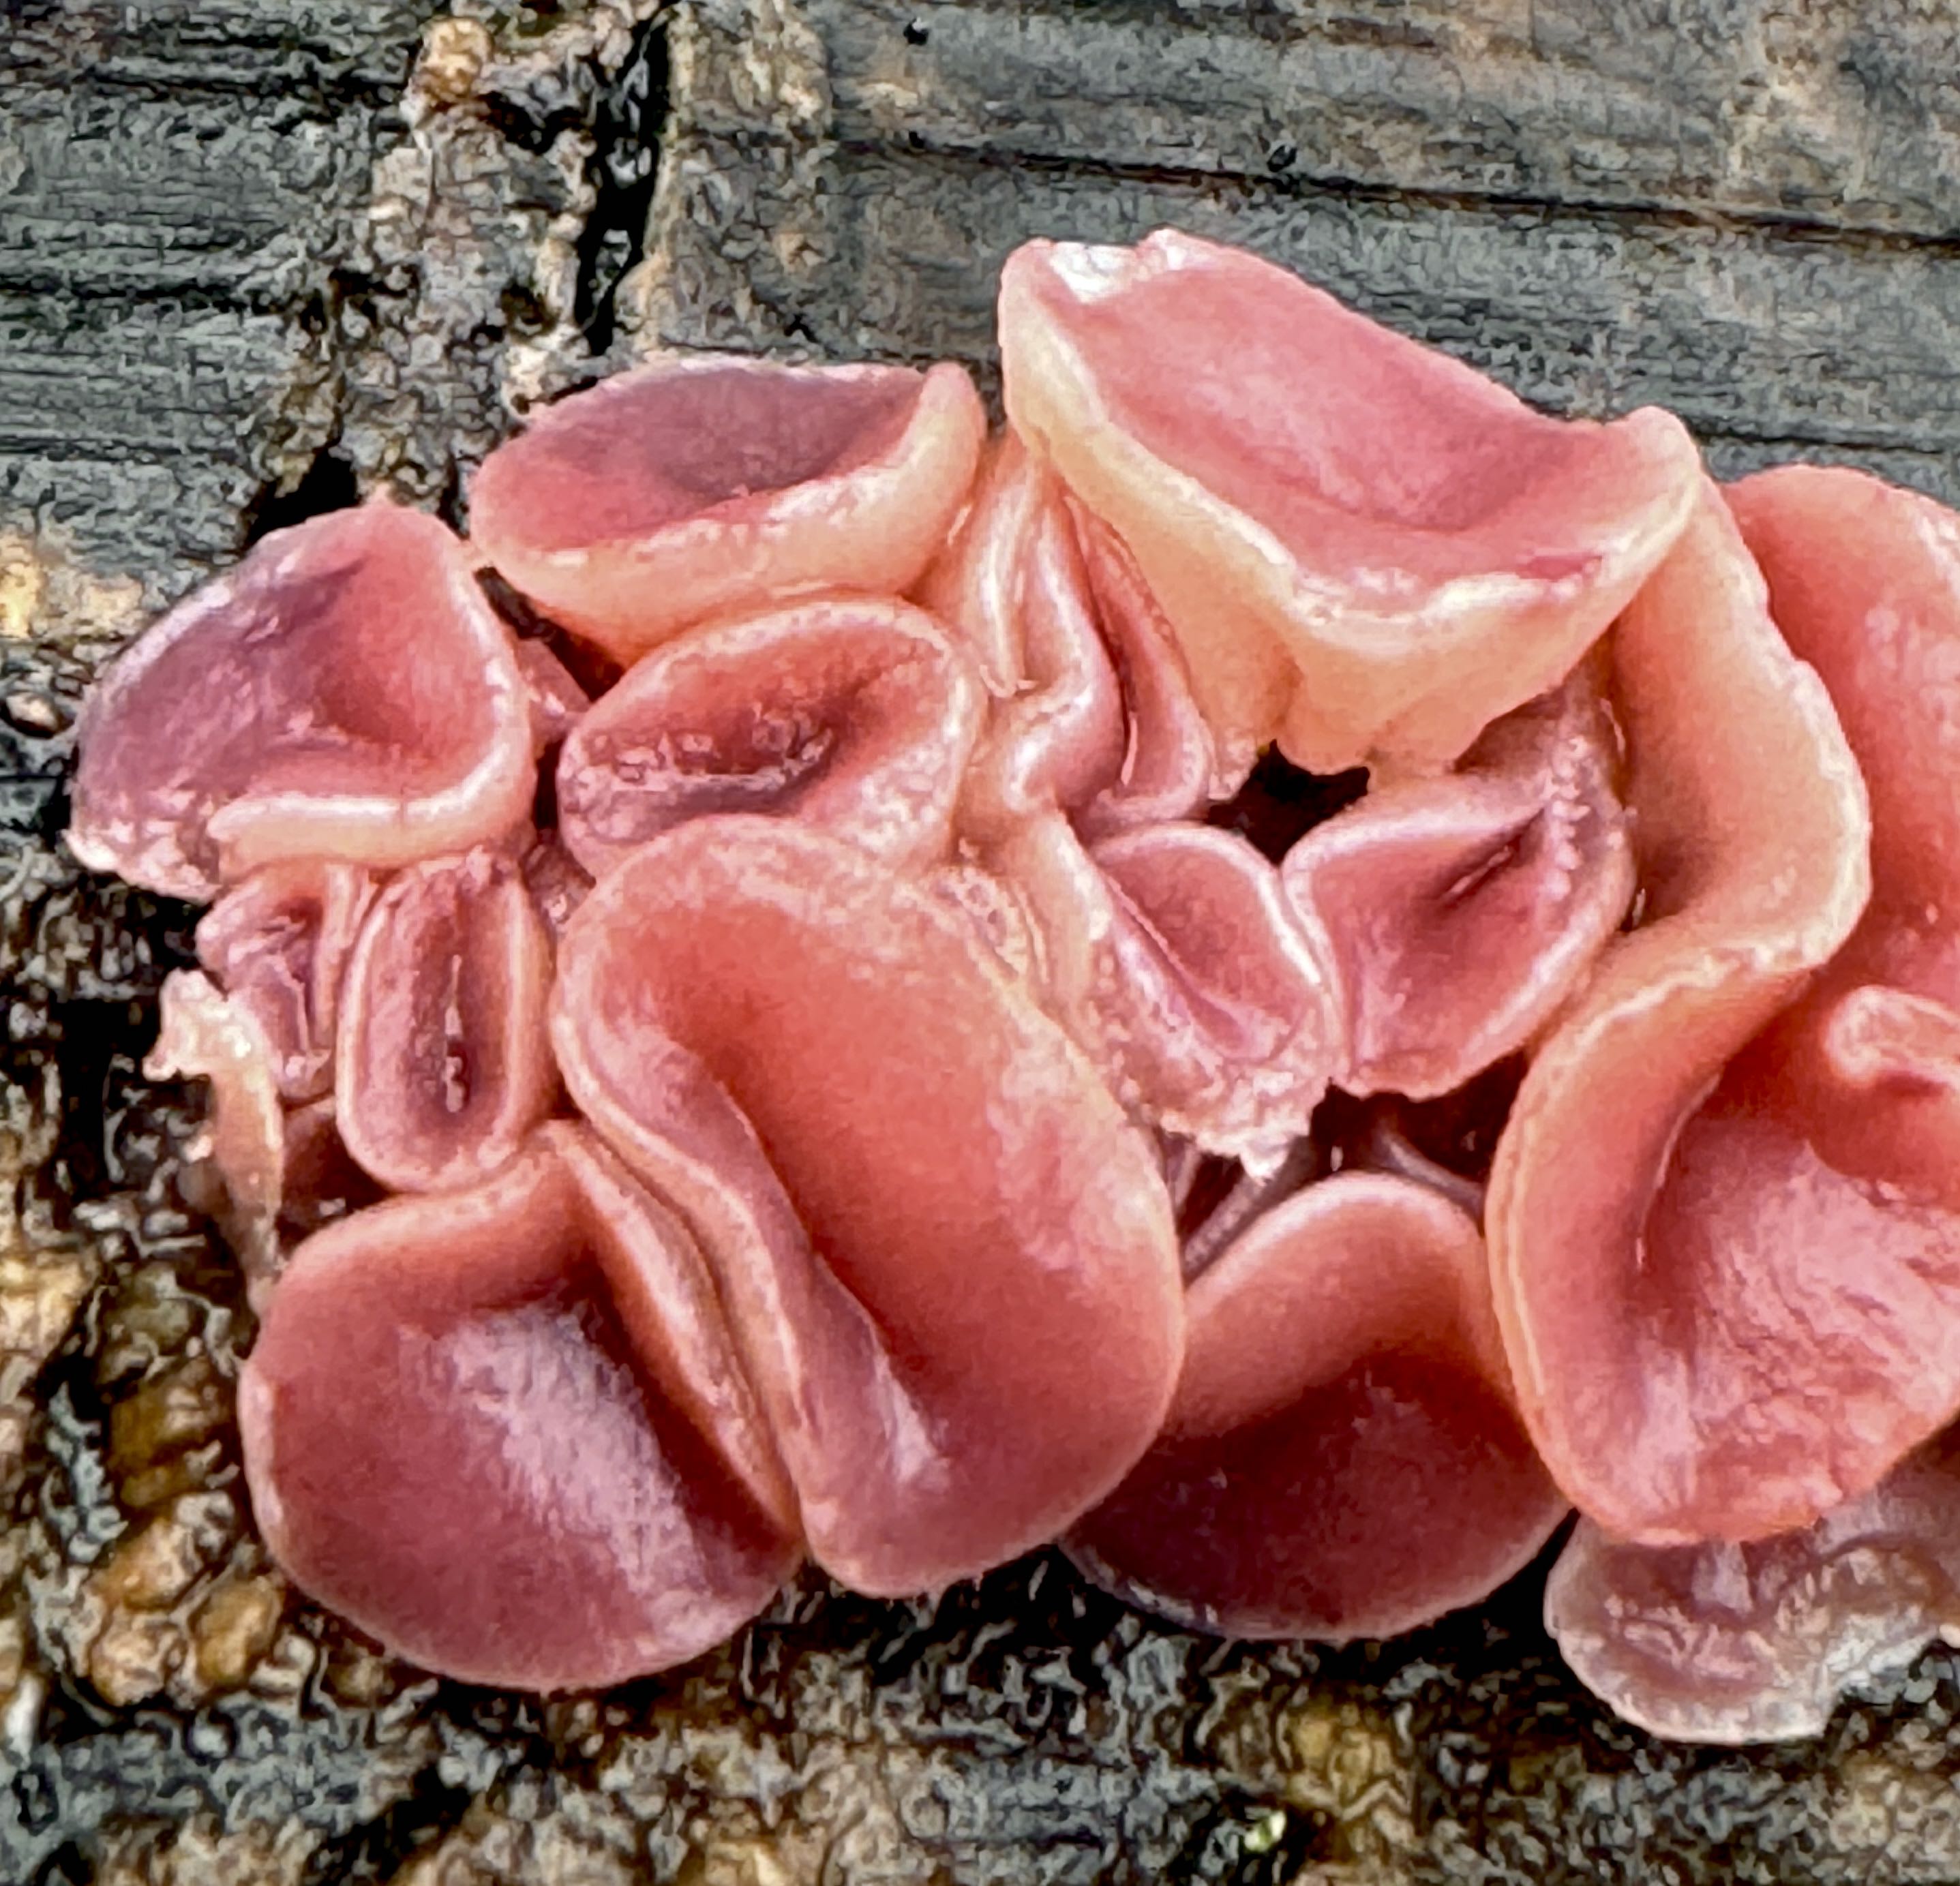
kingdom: Fungi
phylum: Ascomycota
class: Leotiomycetes
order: Helotiales
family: Gelatinodiscaceae
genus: Ascocoryne
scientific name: Ascocoryne cylichnium
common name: stor sejskive
